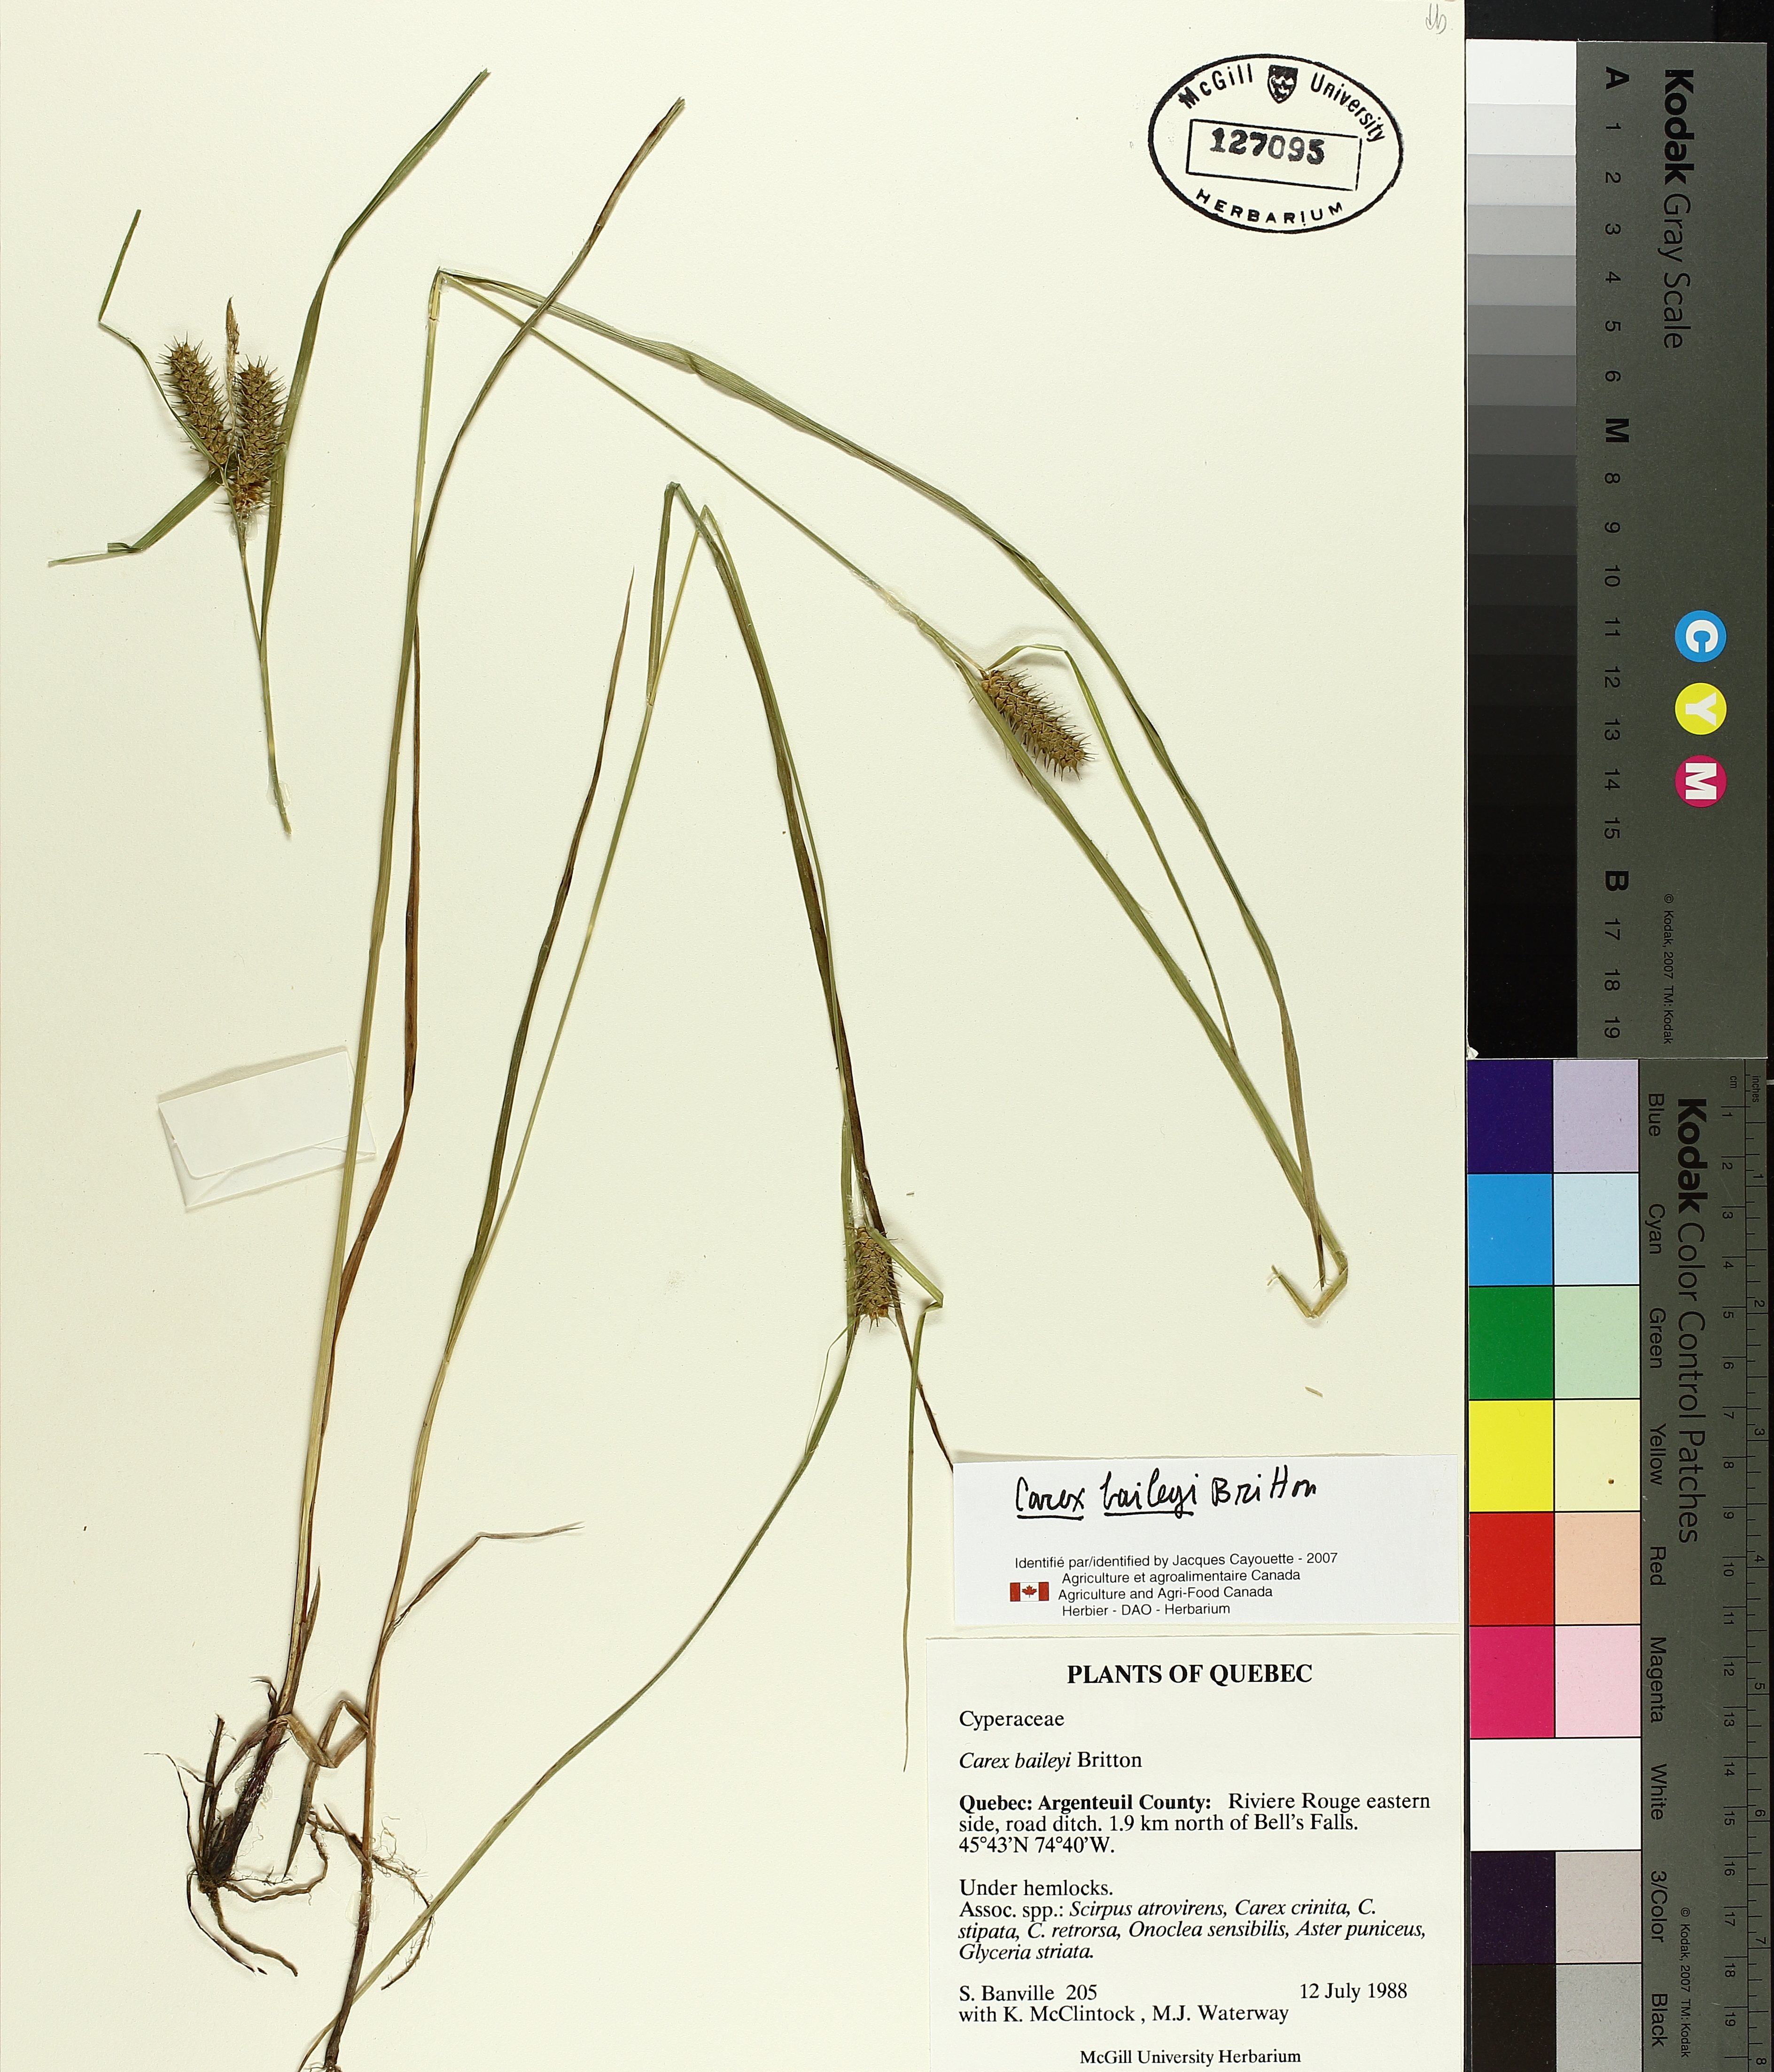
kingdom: Plantae
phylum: Tracheophyta
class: Liliopsida
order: Poales
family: Cyperaceae
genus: Carex
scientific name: Carex baileyi
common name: Bailey's sedge
